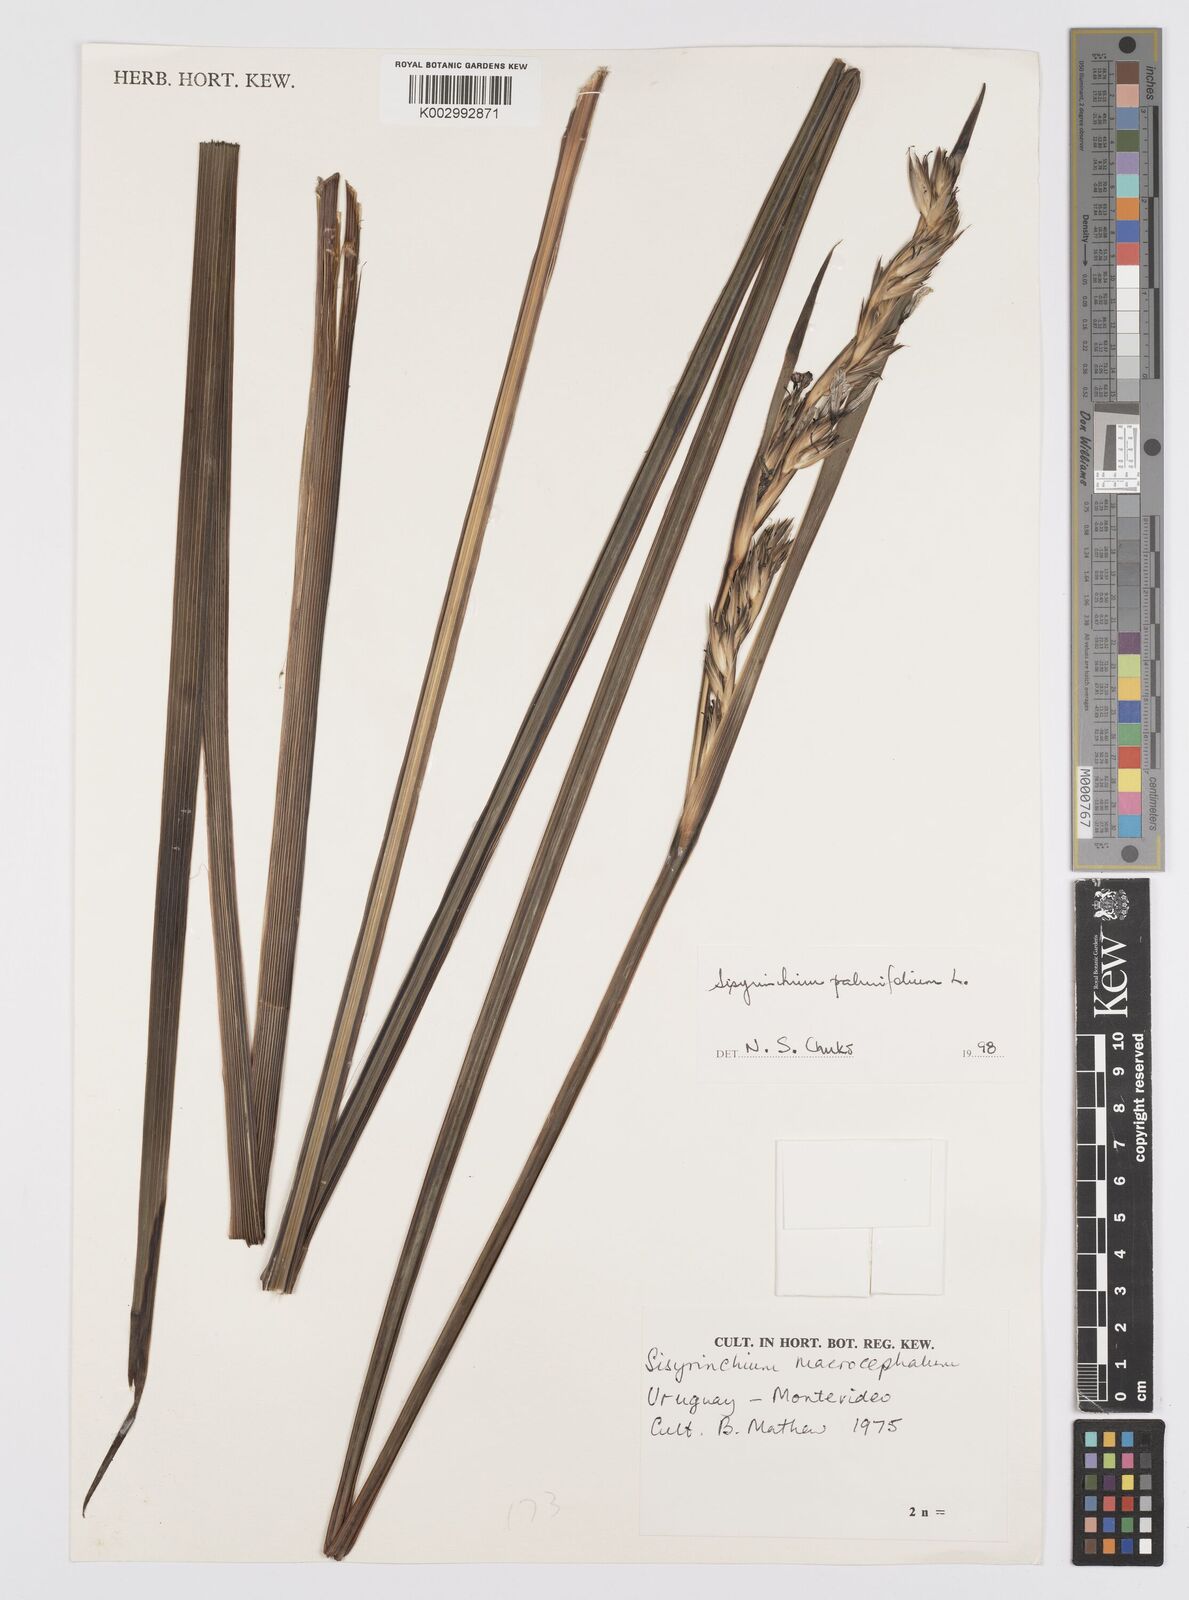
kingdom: Plantae
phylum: Tracheophyta
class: Liliopsida
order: Asparagales
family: Iridaceae
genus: Sisyrinchium
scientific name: Sisyrinchium palmifolium
